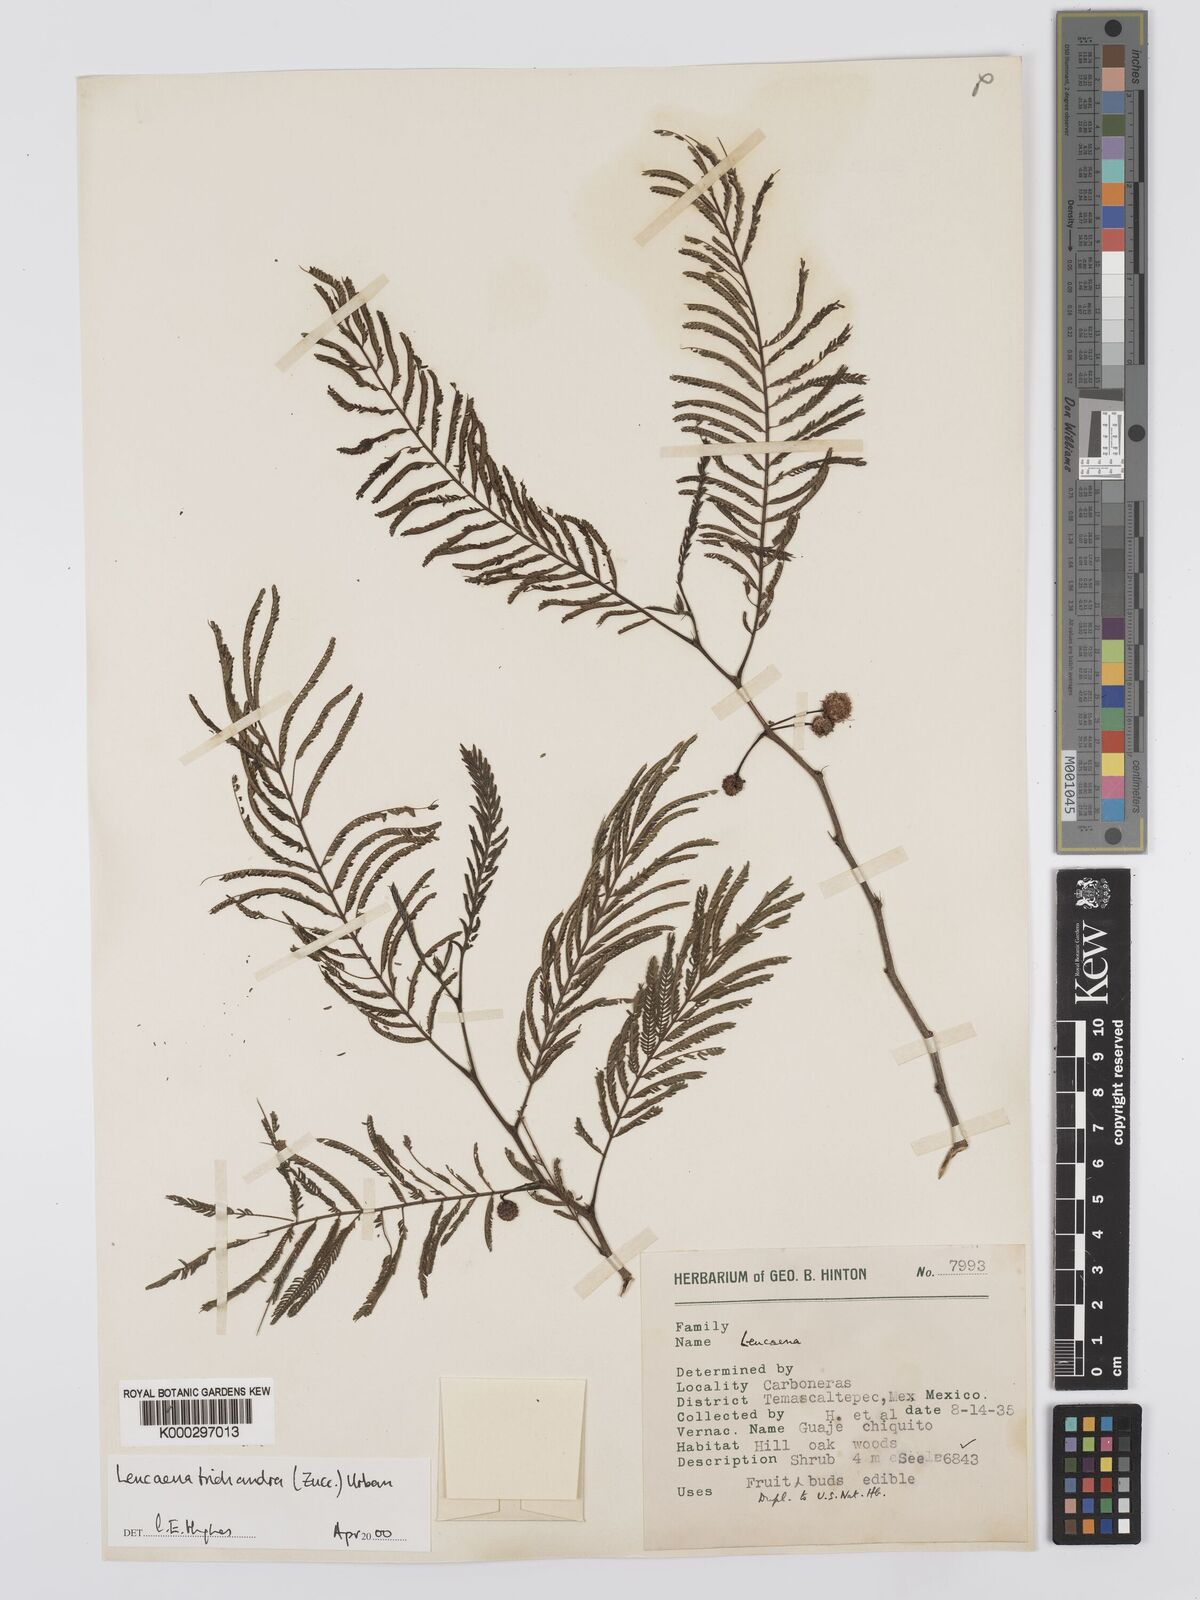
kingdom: Plantae
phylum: Tracheophyta
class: Magnoliopsida
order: Fabales
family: Fabaceae
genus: Leucaena
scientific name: Leucaena trichandra
